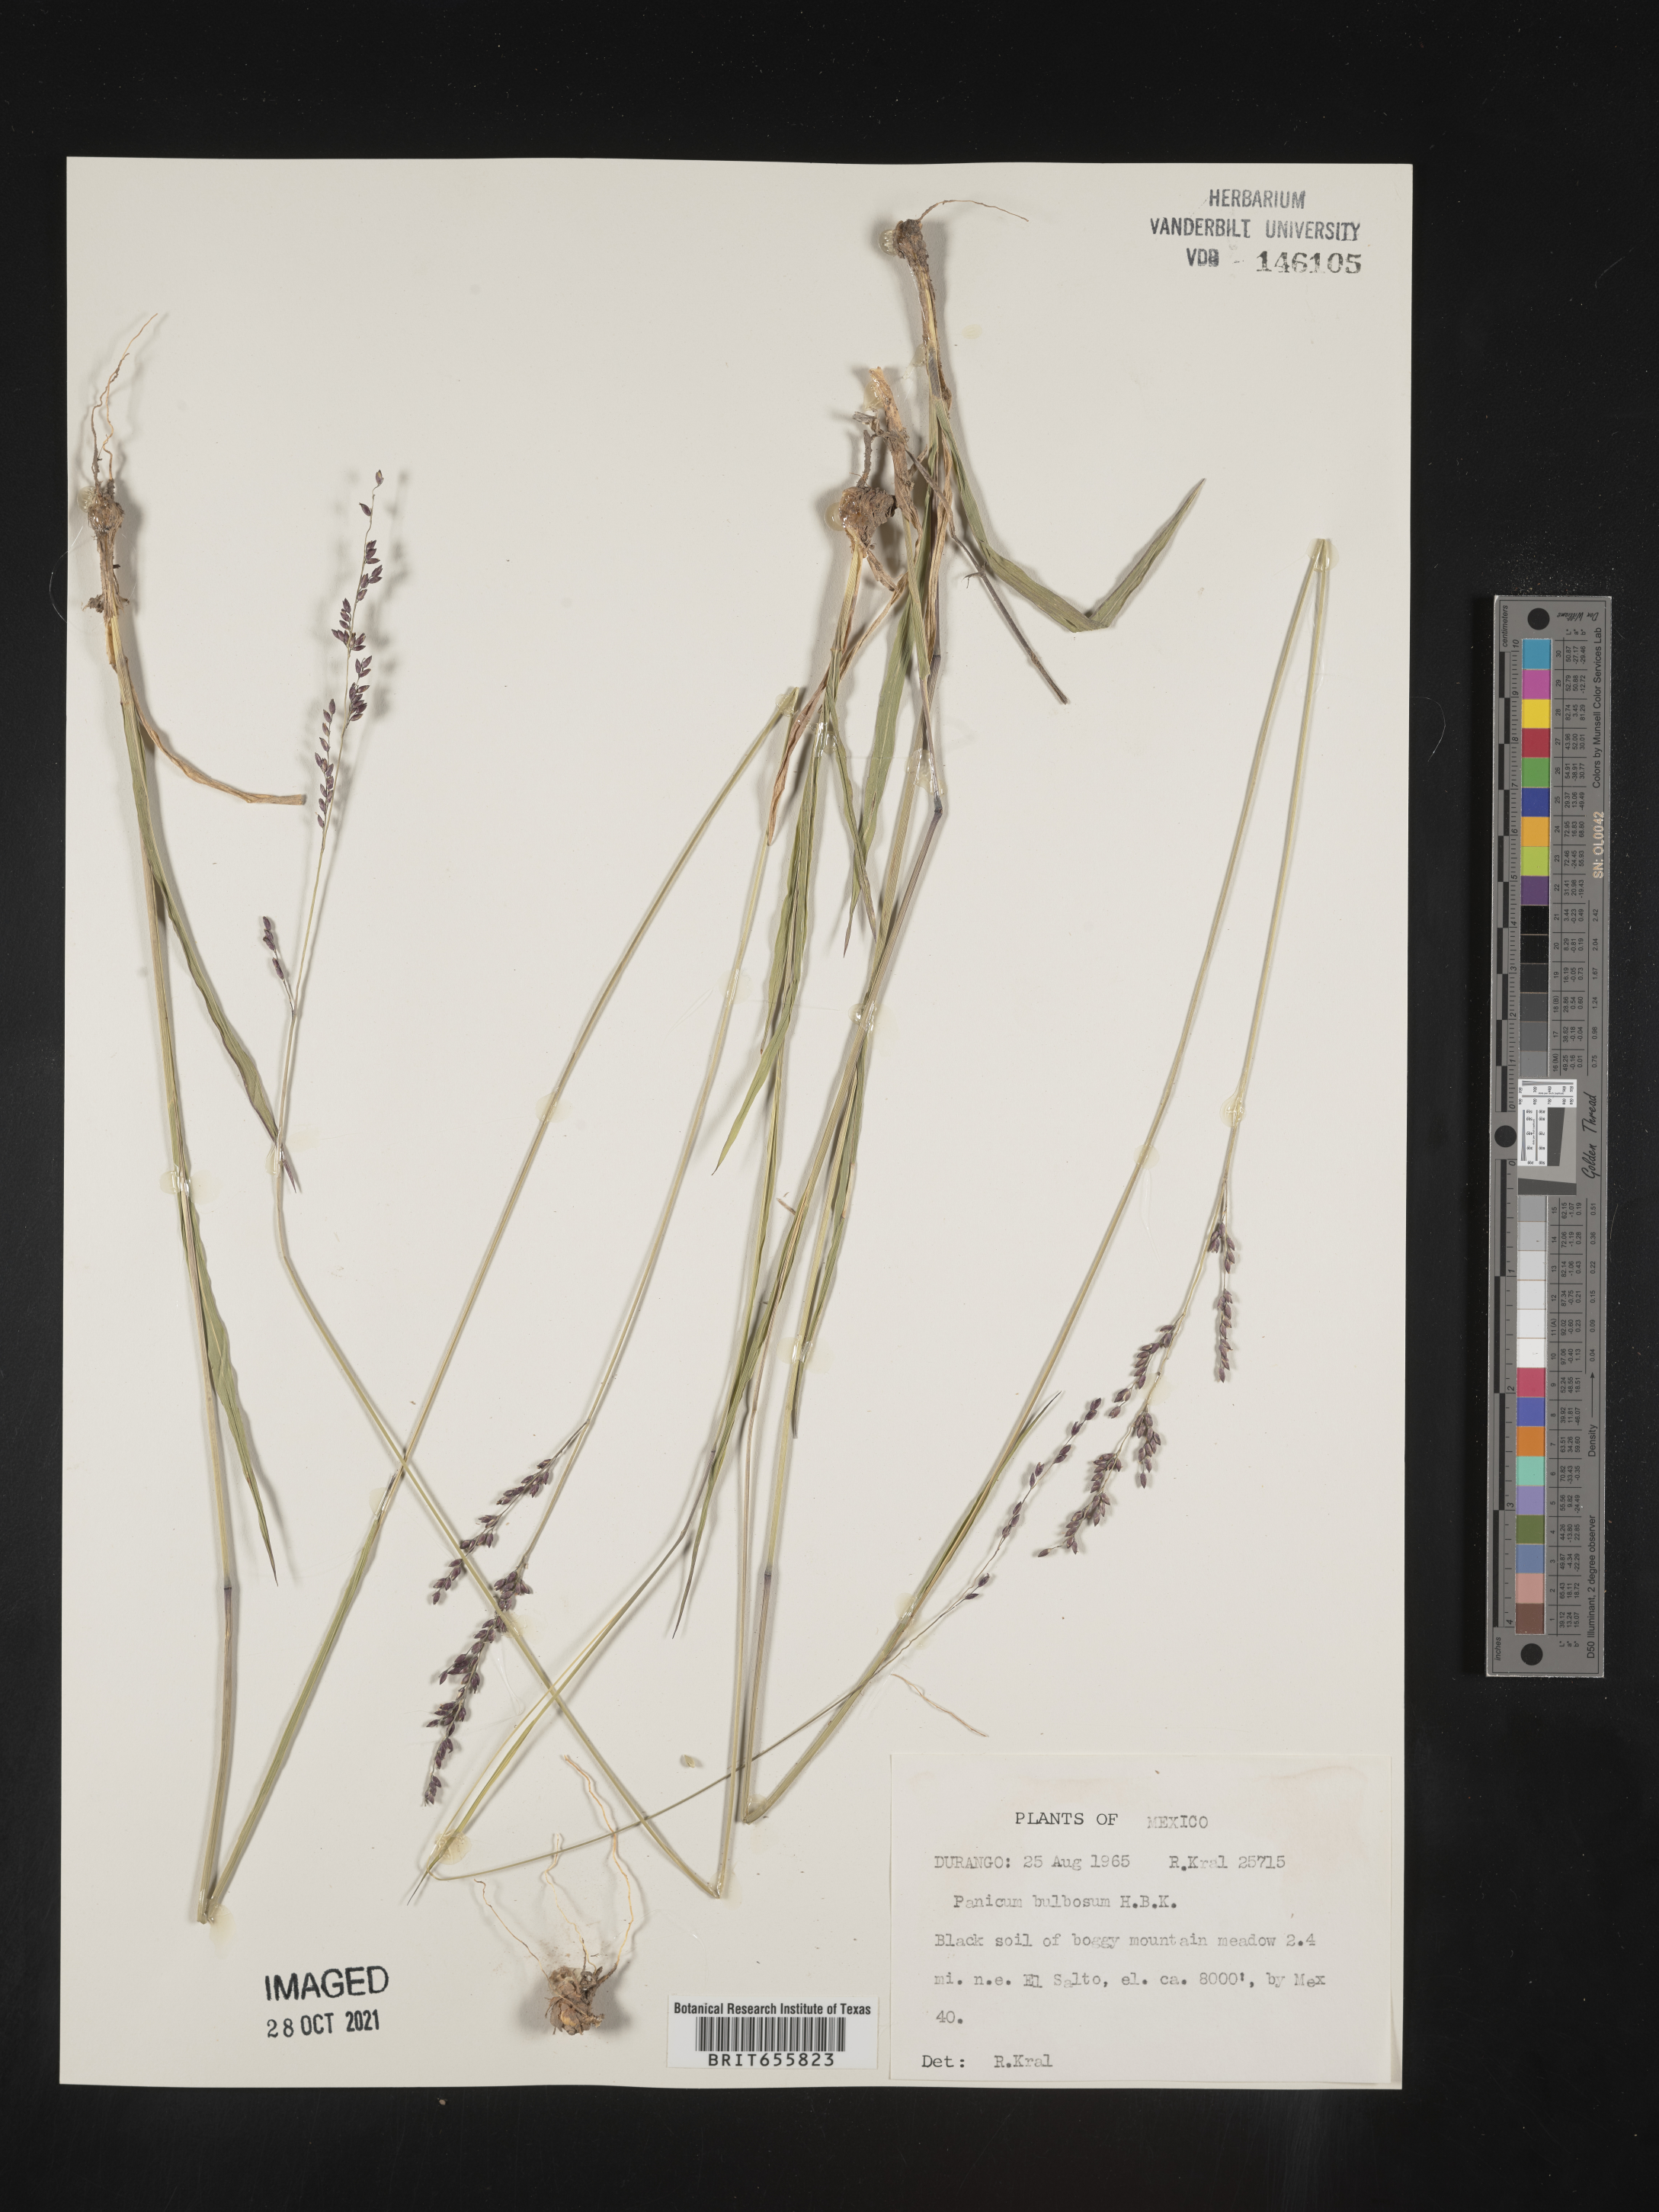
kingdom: Plantae
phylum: Tracheophyta
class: Liliopsida
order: Poales
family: Poaceae
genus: Panicum
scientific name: Panicum
